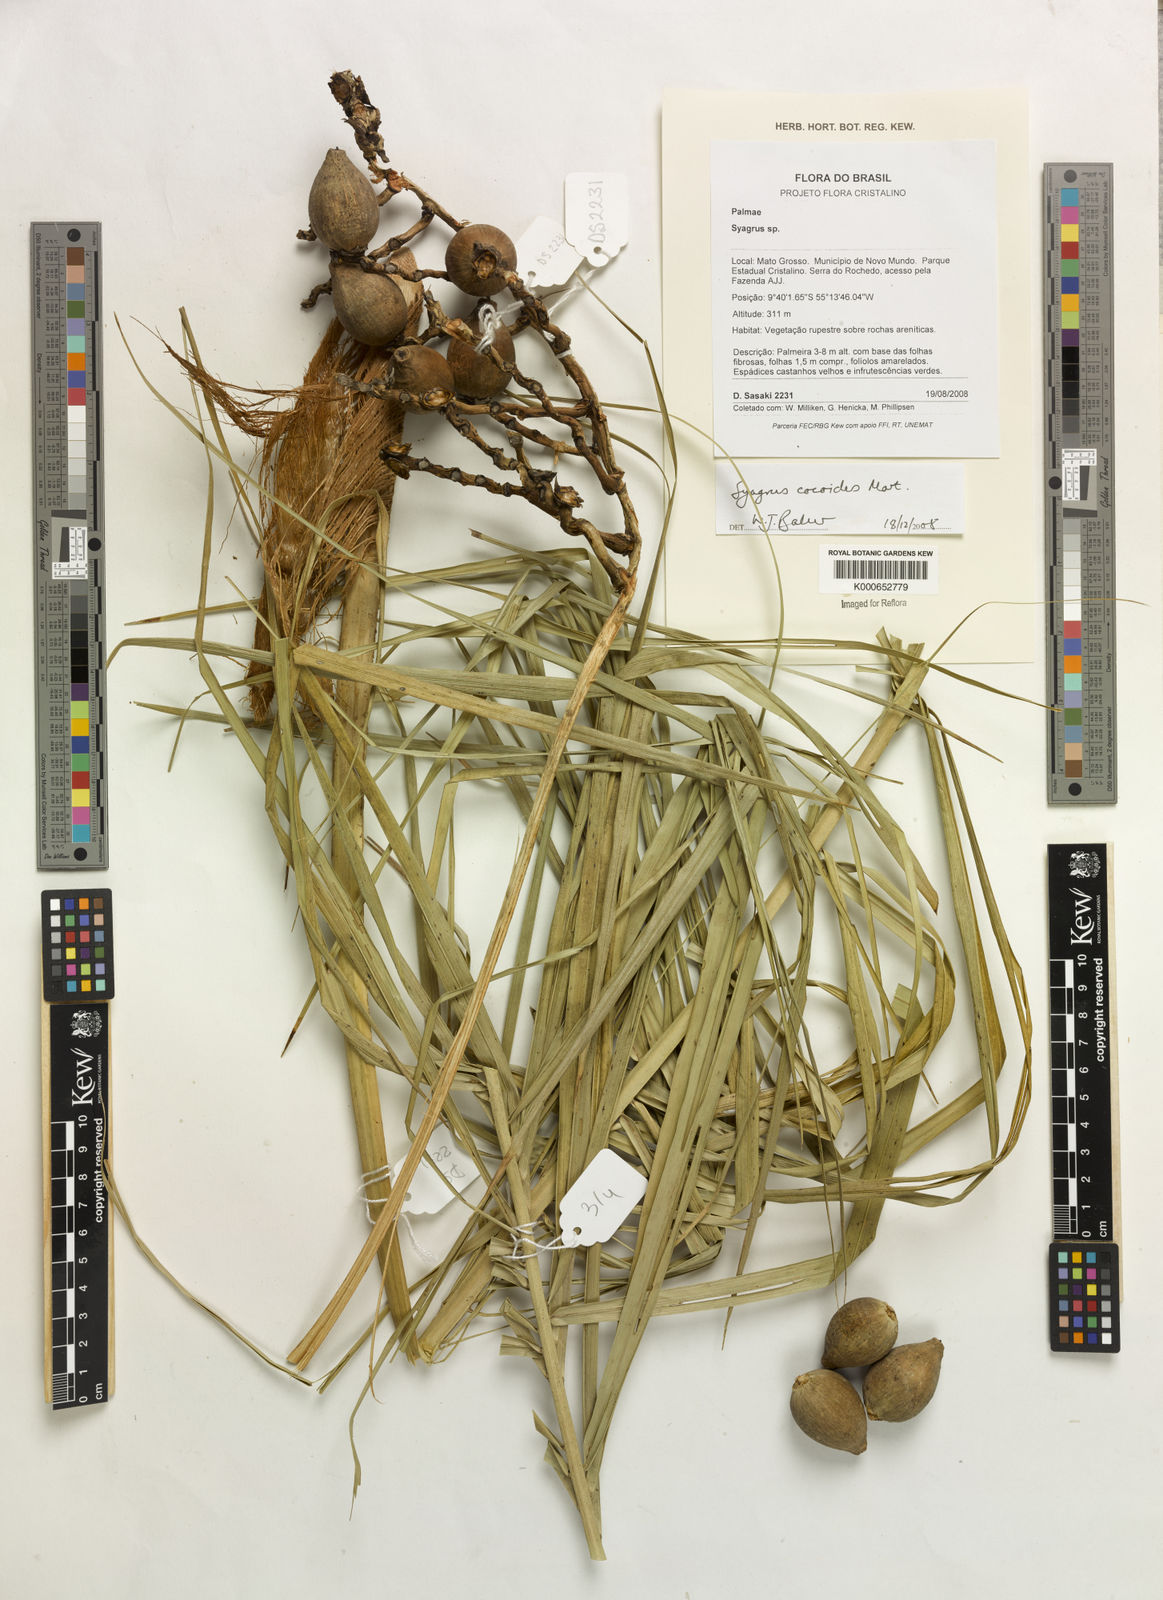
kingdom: Plantae
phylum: Tracheophyta
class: Liliopsida
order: Arecales
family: Arecaceae
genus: Syagrus
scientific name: Syagrus cocoides
